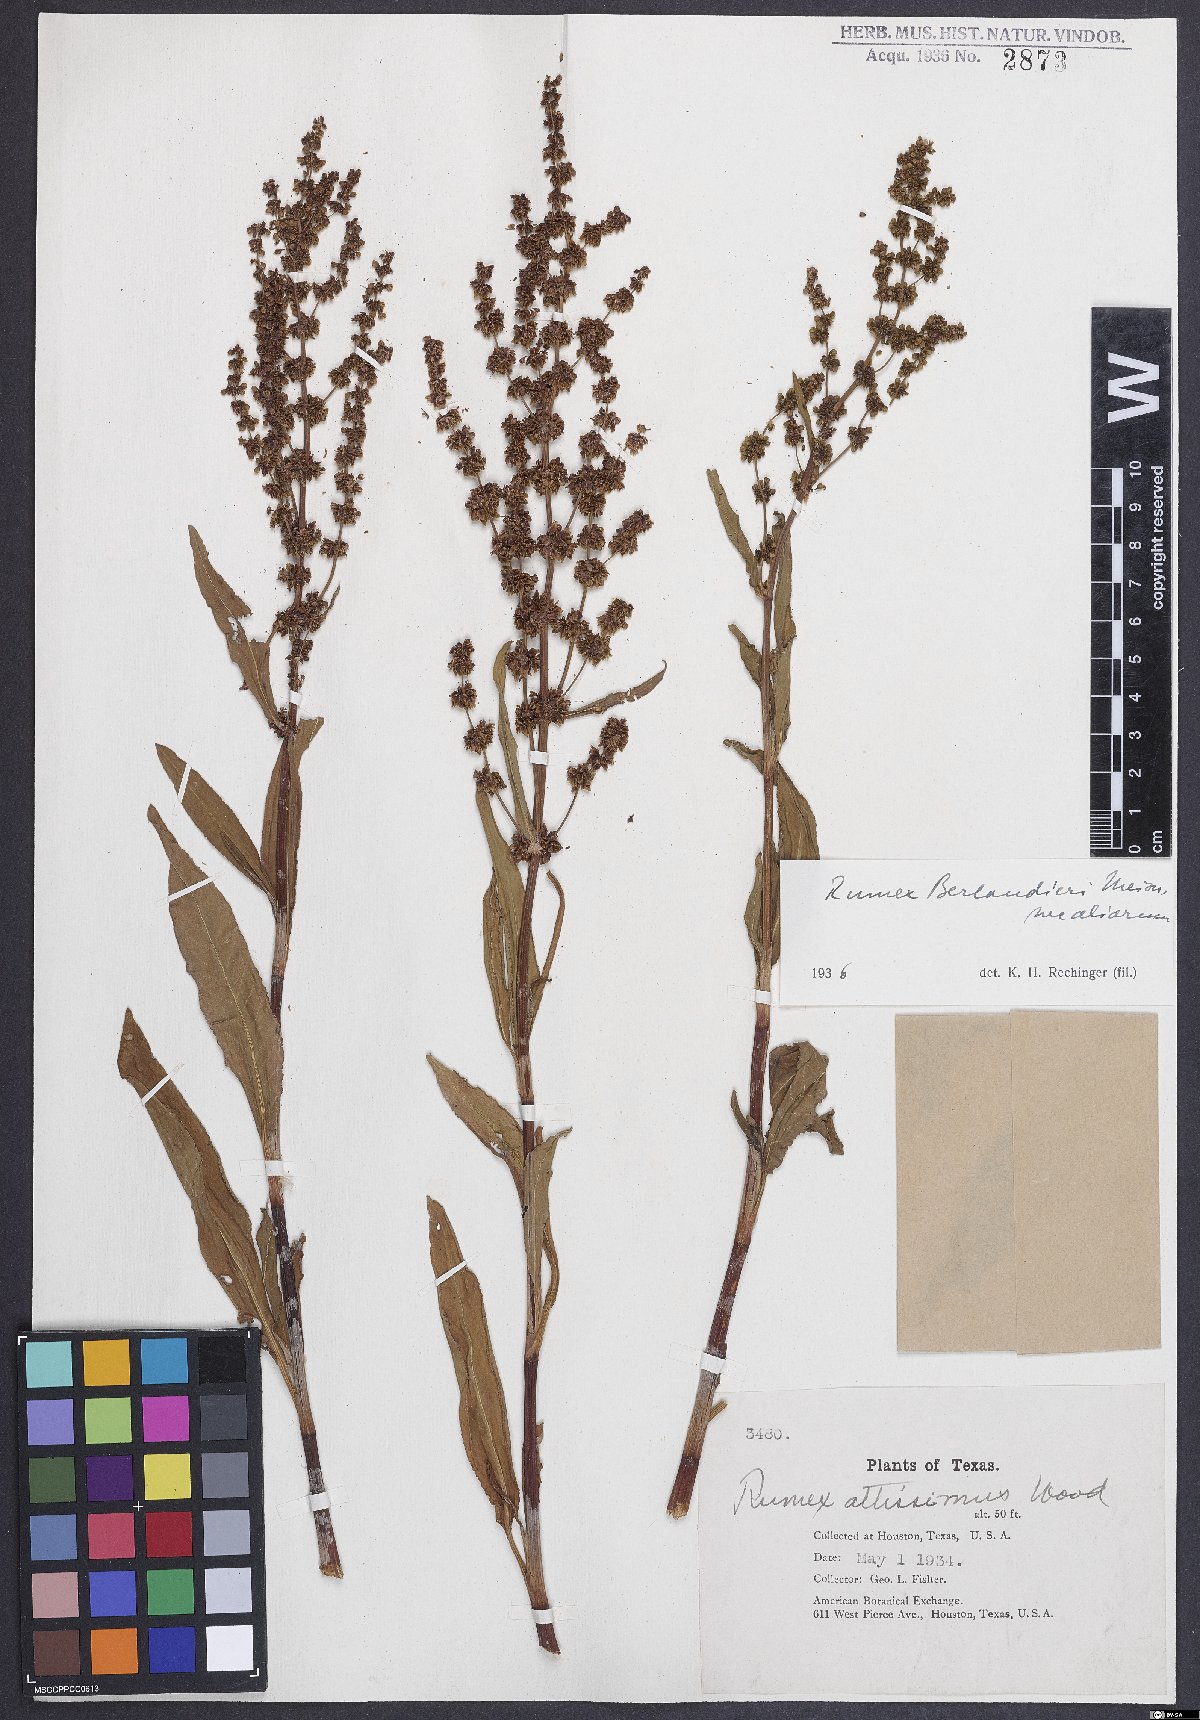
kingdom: Plantae
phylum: Tracheophyta
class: Magnoliopsida
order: Caryophyllales
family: Polygonaceae
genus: Rumex
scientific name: Rumex chrysocarpus
